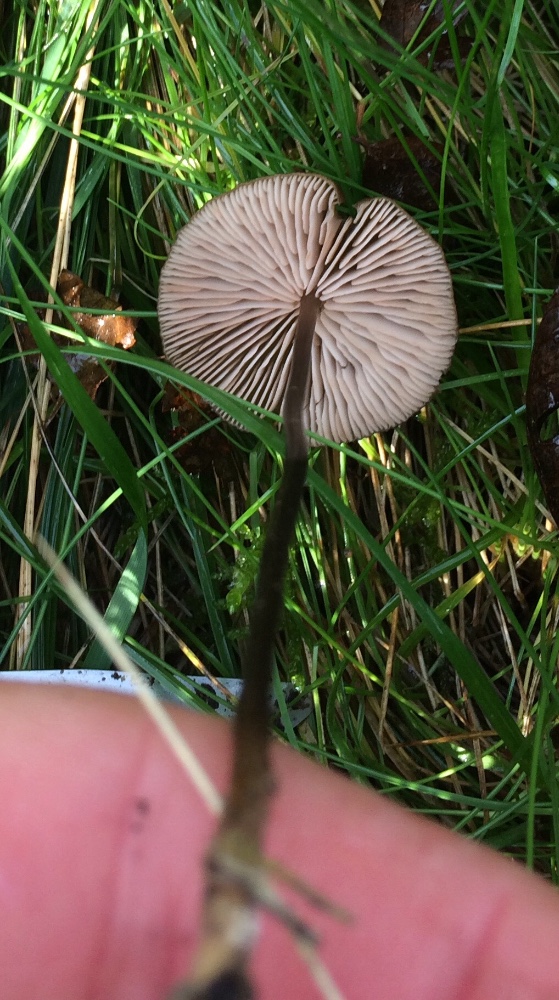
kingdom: Fungi
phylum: Basidiomycota
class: Agaricomycetes
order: Agaricales
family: Entolomataceae
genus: Entoloma
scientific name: Entoloma hebes
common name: krat-rødblad
